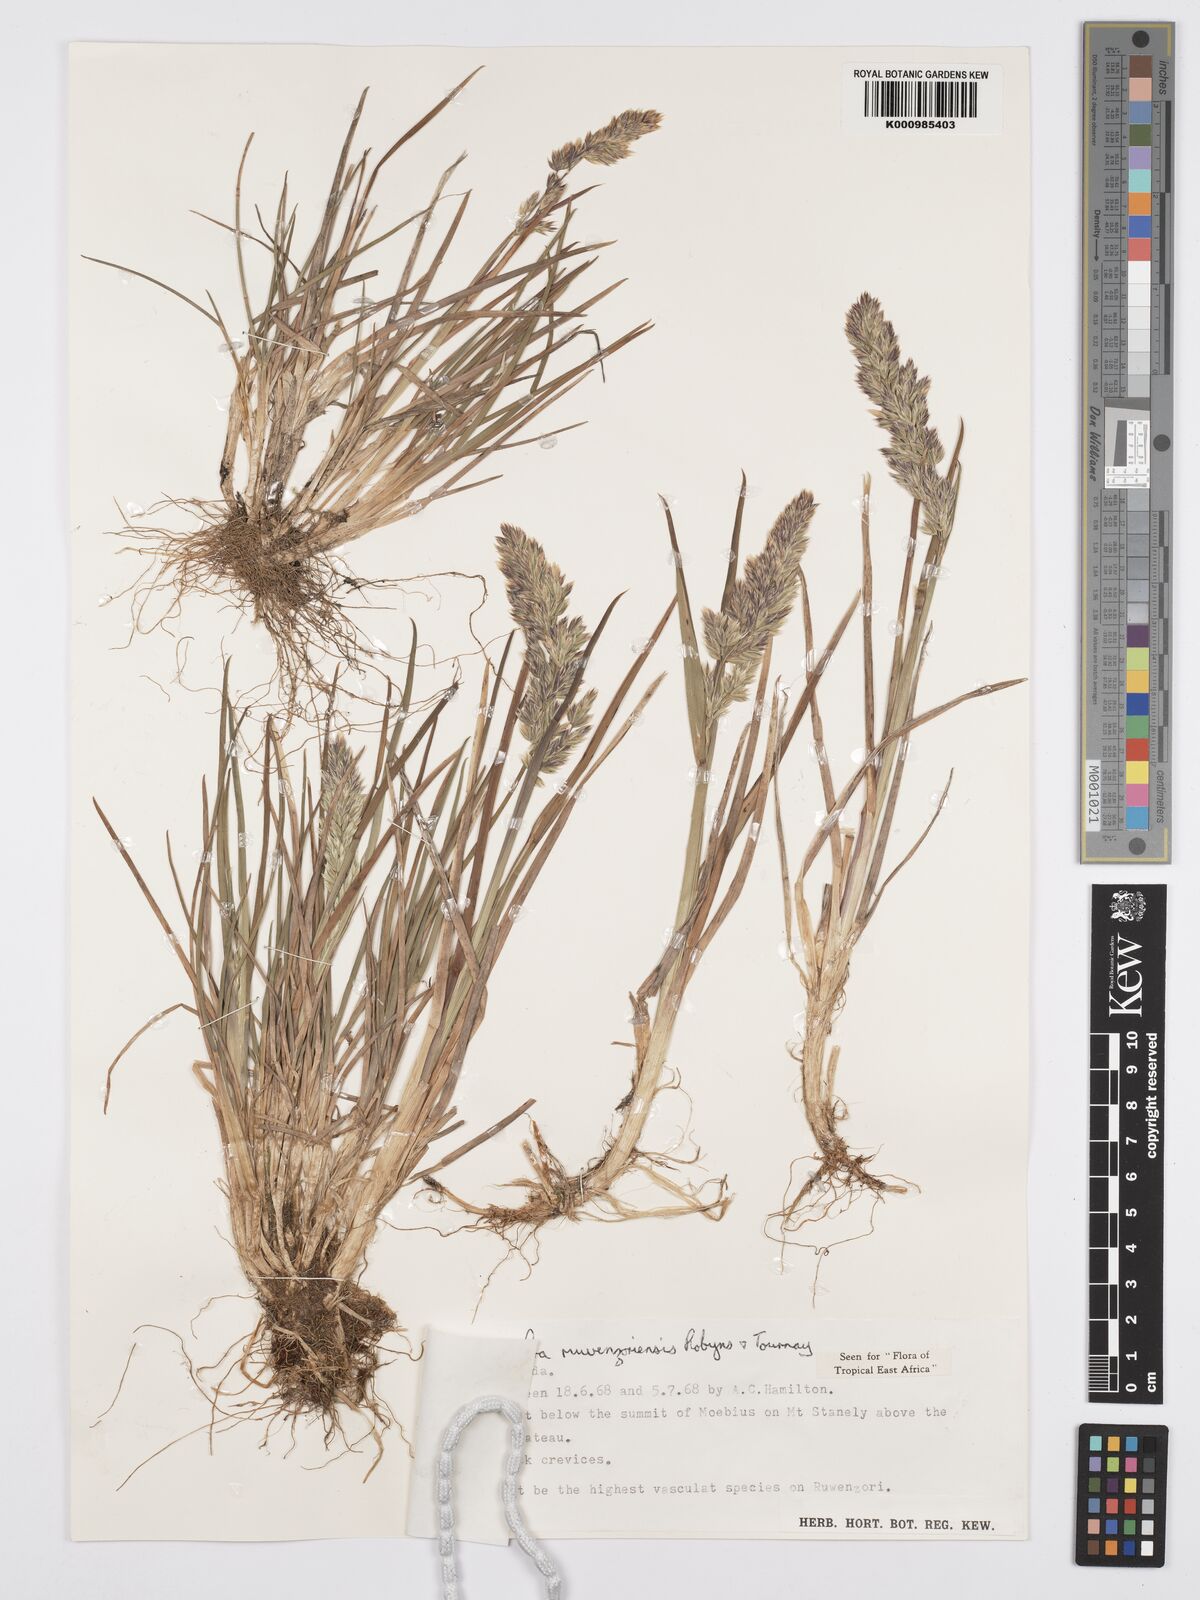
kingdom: Plantae
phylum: Tracheophyta
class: Liliopsida
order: Poales
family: Poaceae
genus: Poa
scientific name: Poa ruwenzoriensis
